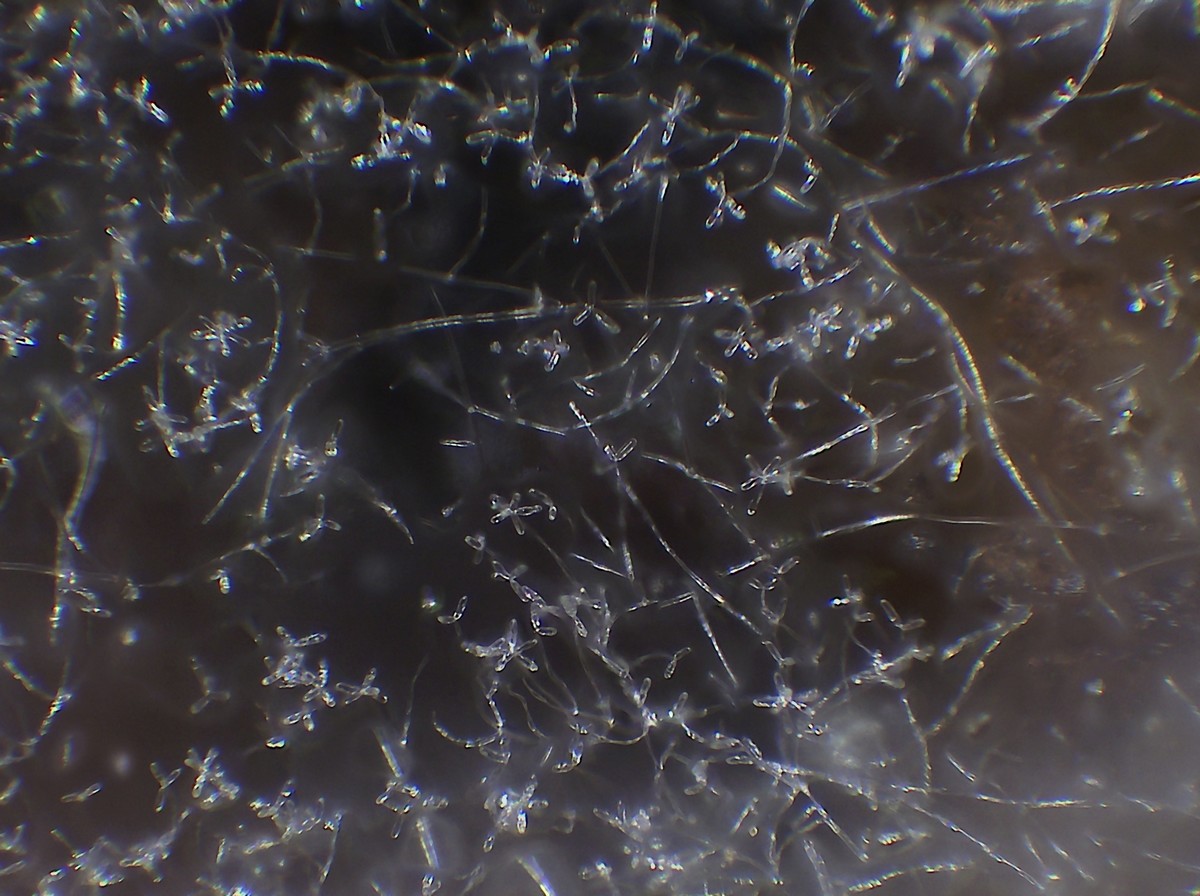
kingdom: Fungi
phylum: Ascomycota
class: Sordariomycetes
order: Hypocreales
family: Hypocreaceae
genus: Cladobotryum
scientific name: Cladobotryum
